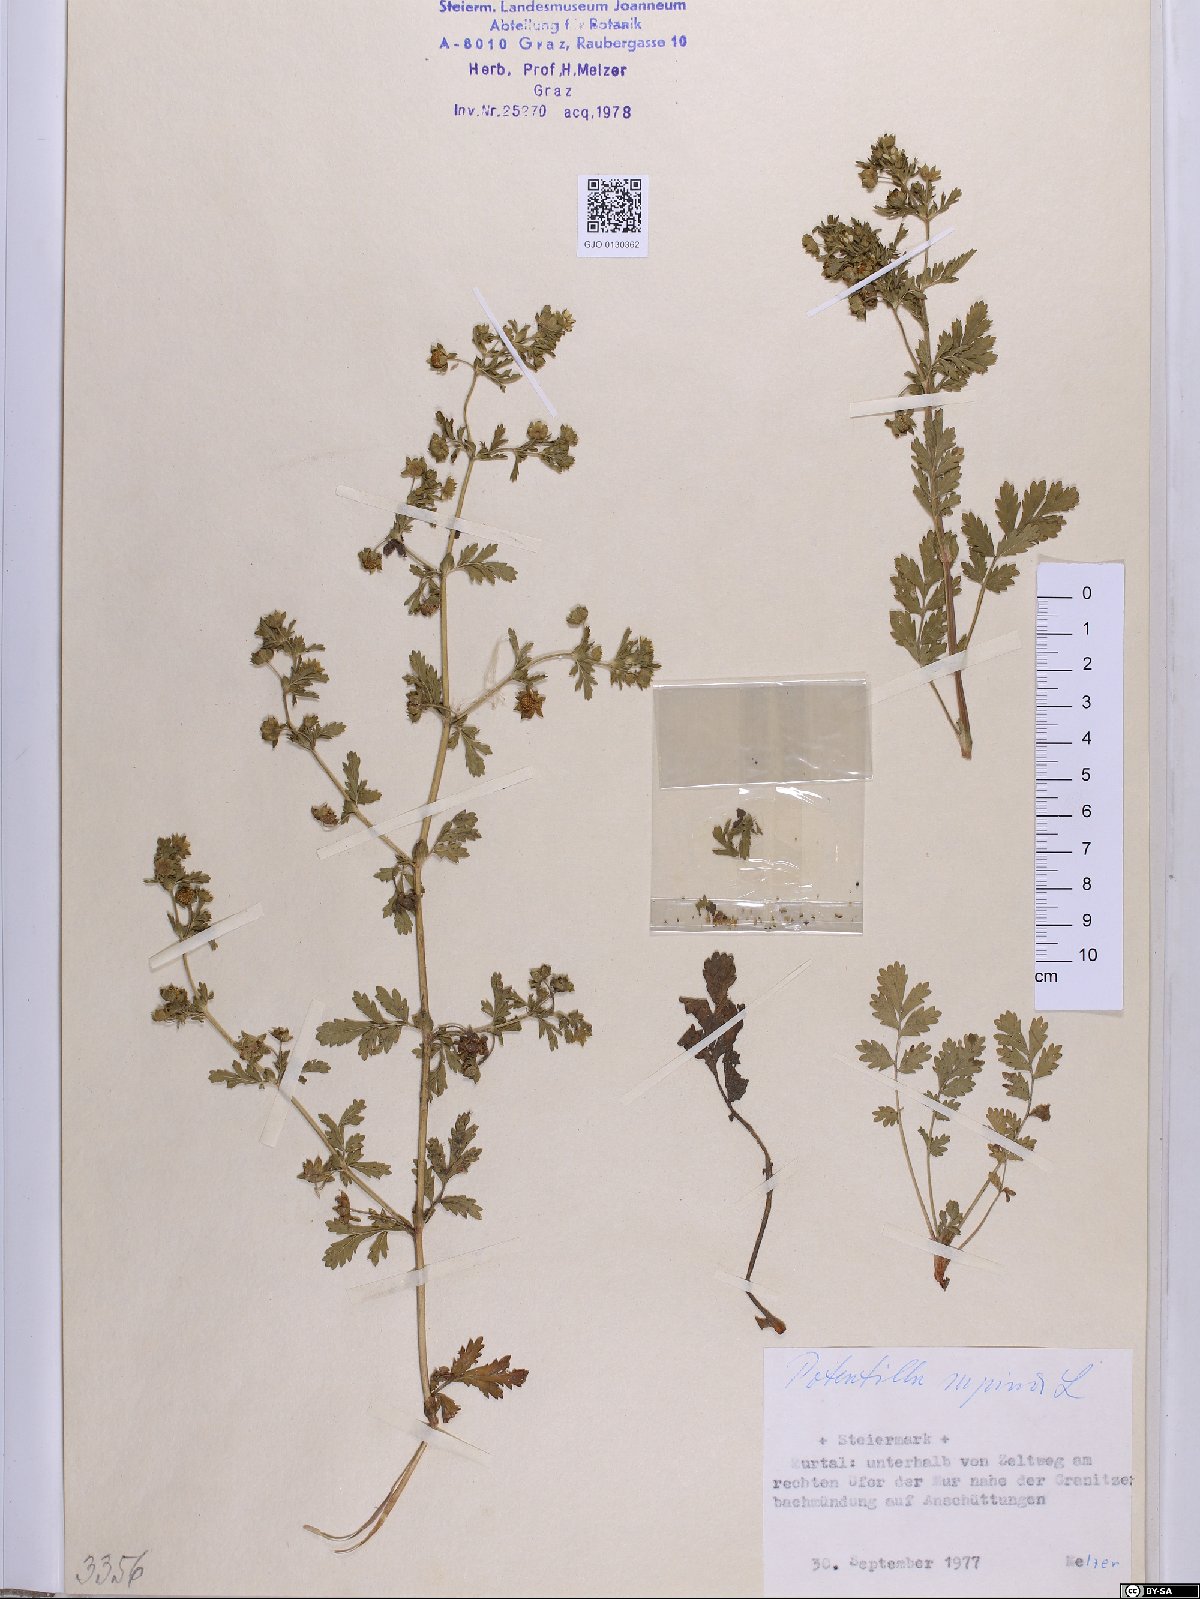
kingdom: Plantae
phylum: Tracheophyta
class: Magnoliopsida
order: Rosales
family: Rosaceae
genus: Potentilla
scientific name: Potentilla supina
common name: Prostrate cinquefoil
